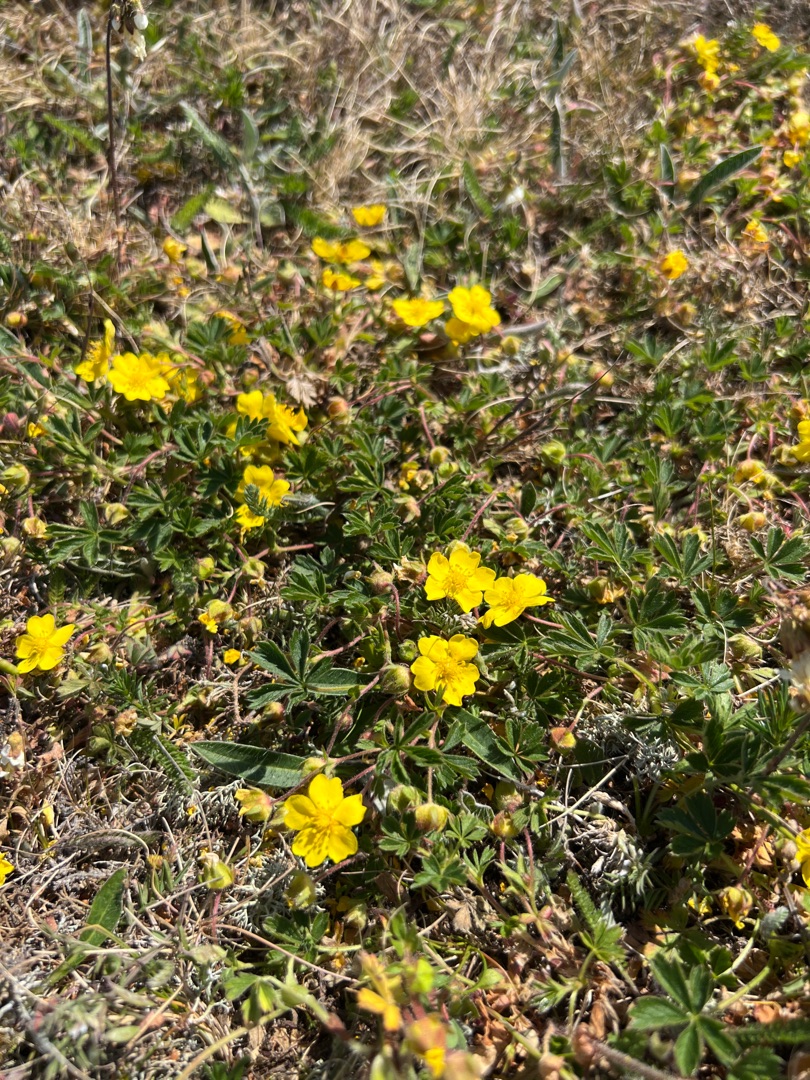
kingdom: Plantae
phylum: Tracheophyta
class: Magnoliopsida
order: Rosales
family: Rosaceae
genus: Potentilla
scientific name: Potentilla reptans
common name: Krybende potentil
